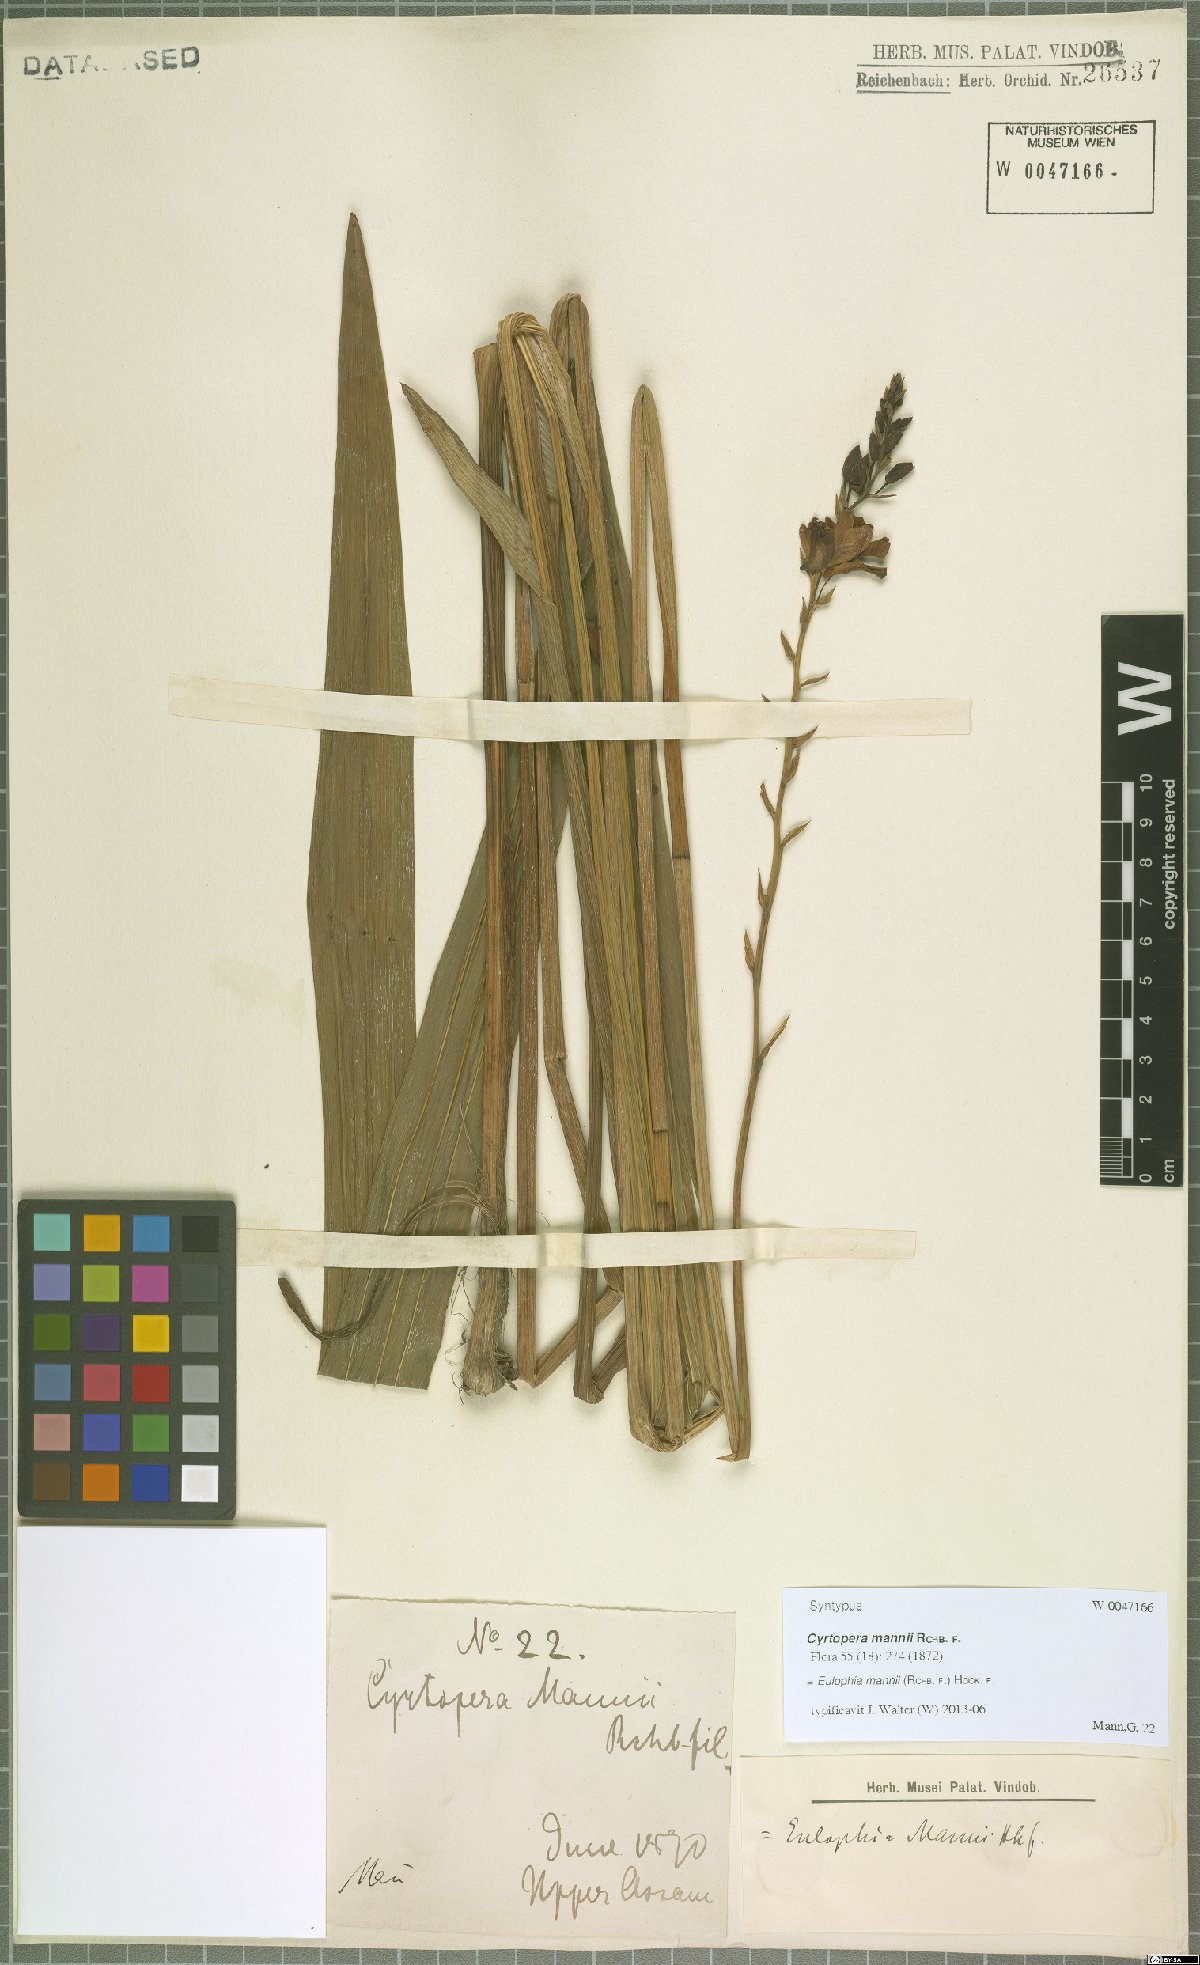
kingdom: Plantae
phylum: Tracheophyta
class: Liliopsida
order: Asparagales
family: Orchidaceae
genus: Eulophia
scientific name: Eulophia mannii
